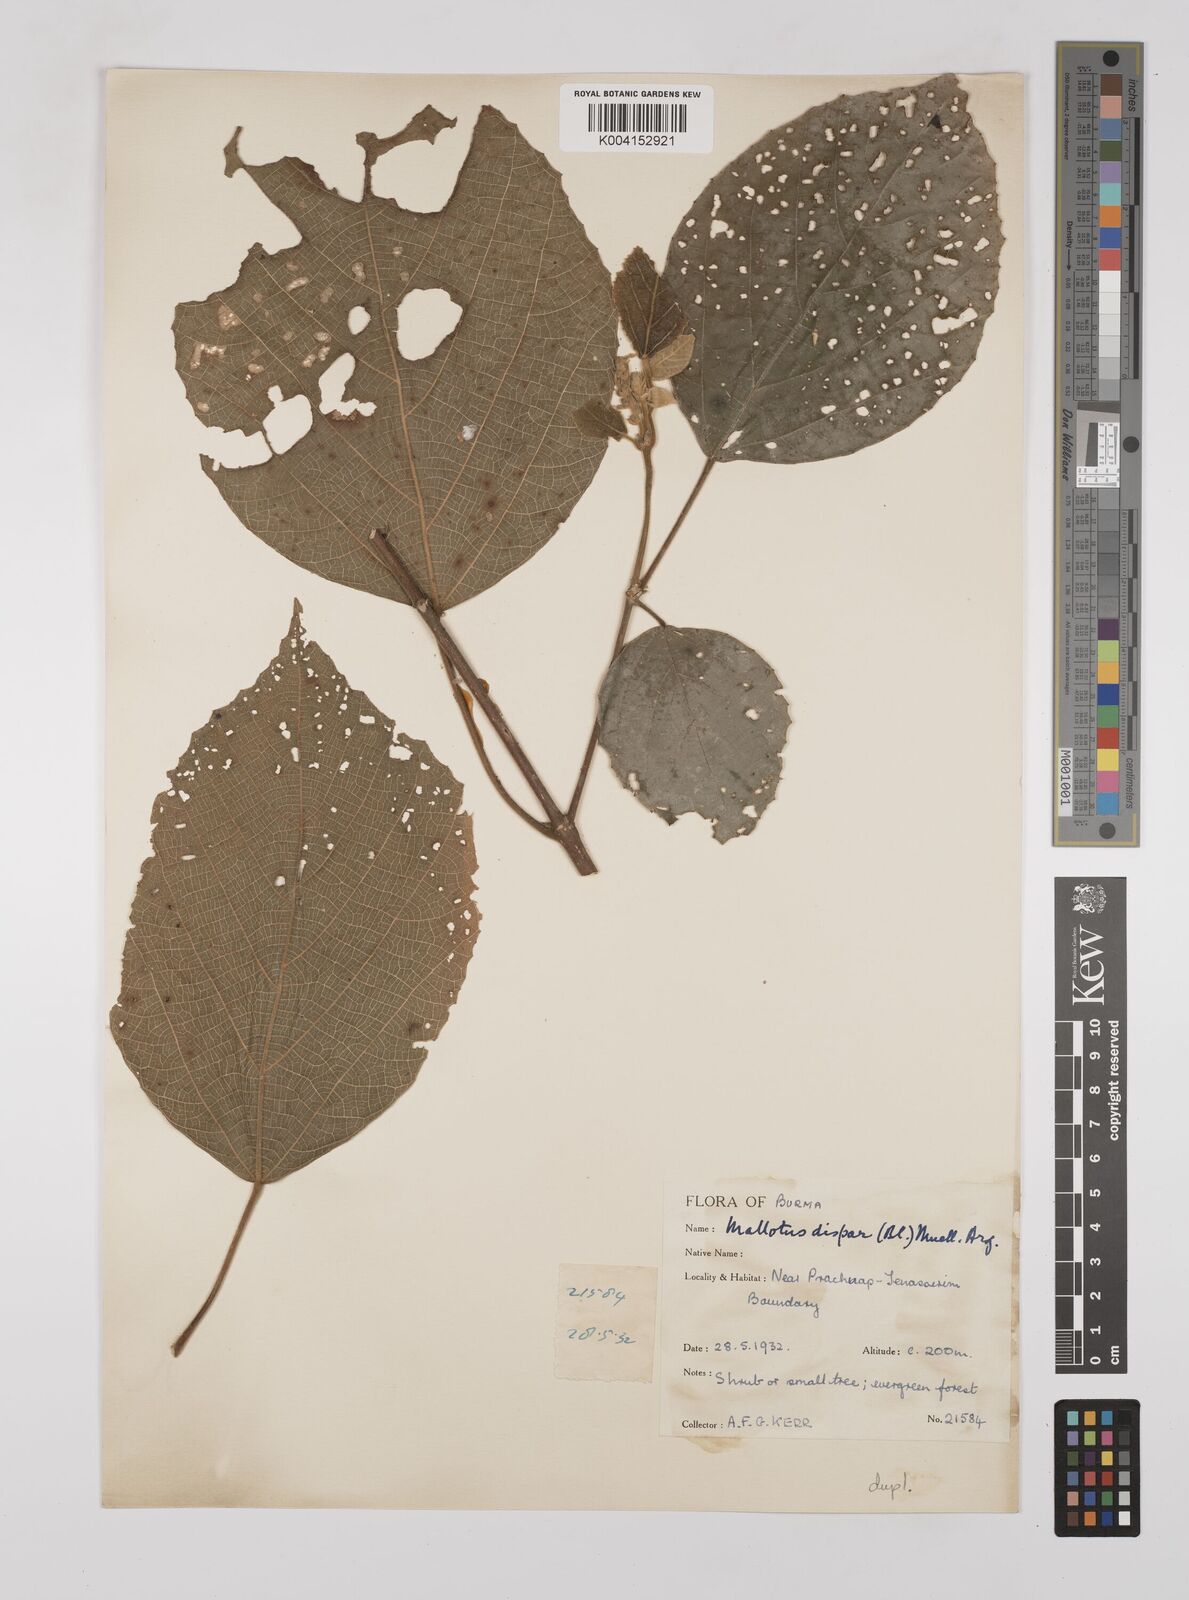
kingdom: Plantae
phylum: Tracheophyta
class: Magnoliopsida
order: Malpighiales
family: Euphorbiaceae
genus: Mallotus
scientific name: Mallotus dispar
